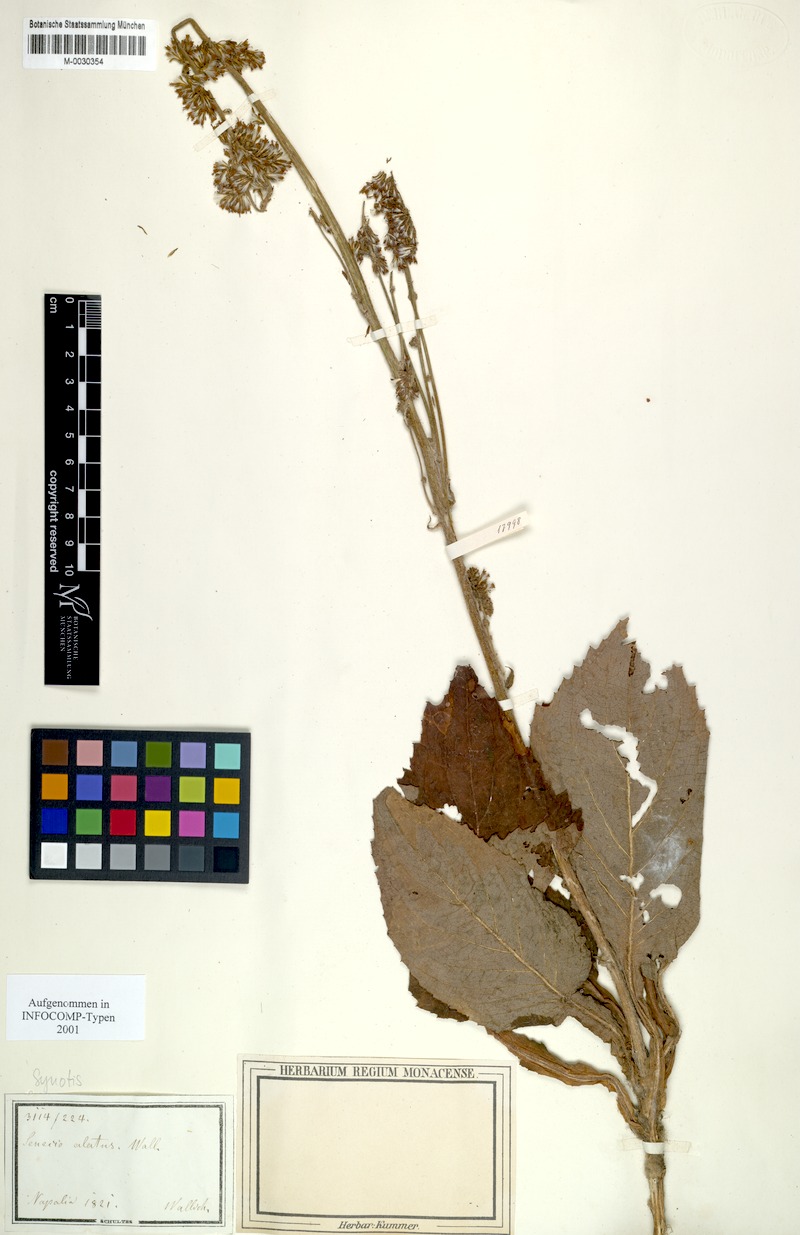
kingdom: Plantae
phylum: Tracheophyta
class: Magnoliopsida
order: Asterales
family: Asteraceae
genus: Synotis
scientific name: Synotis alata
